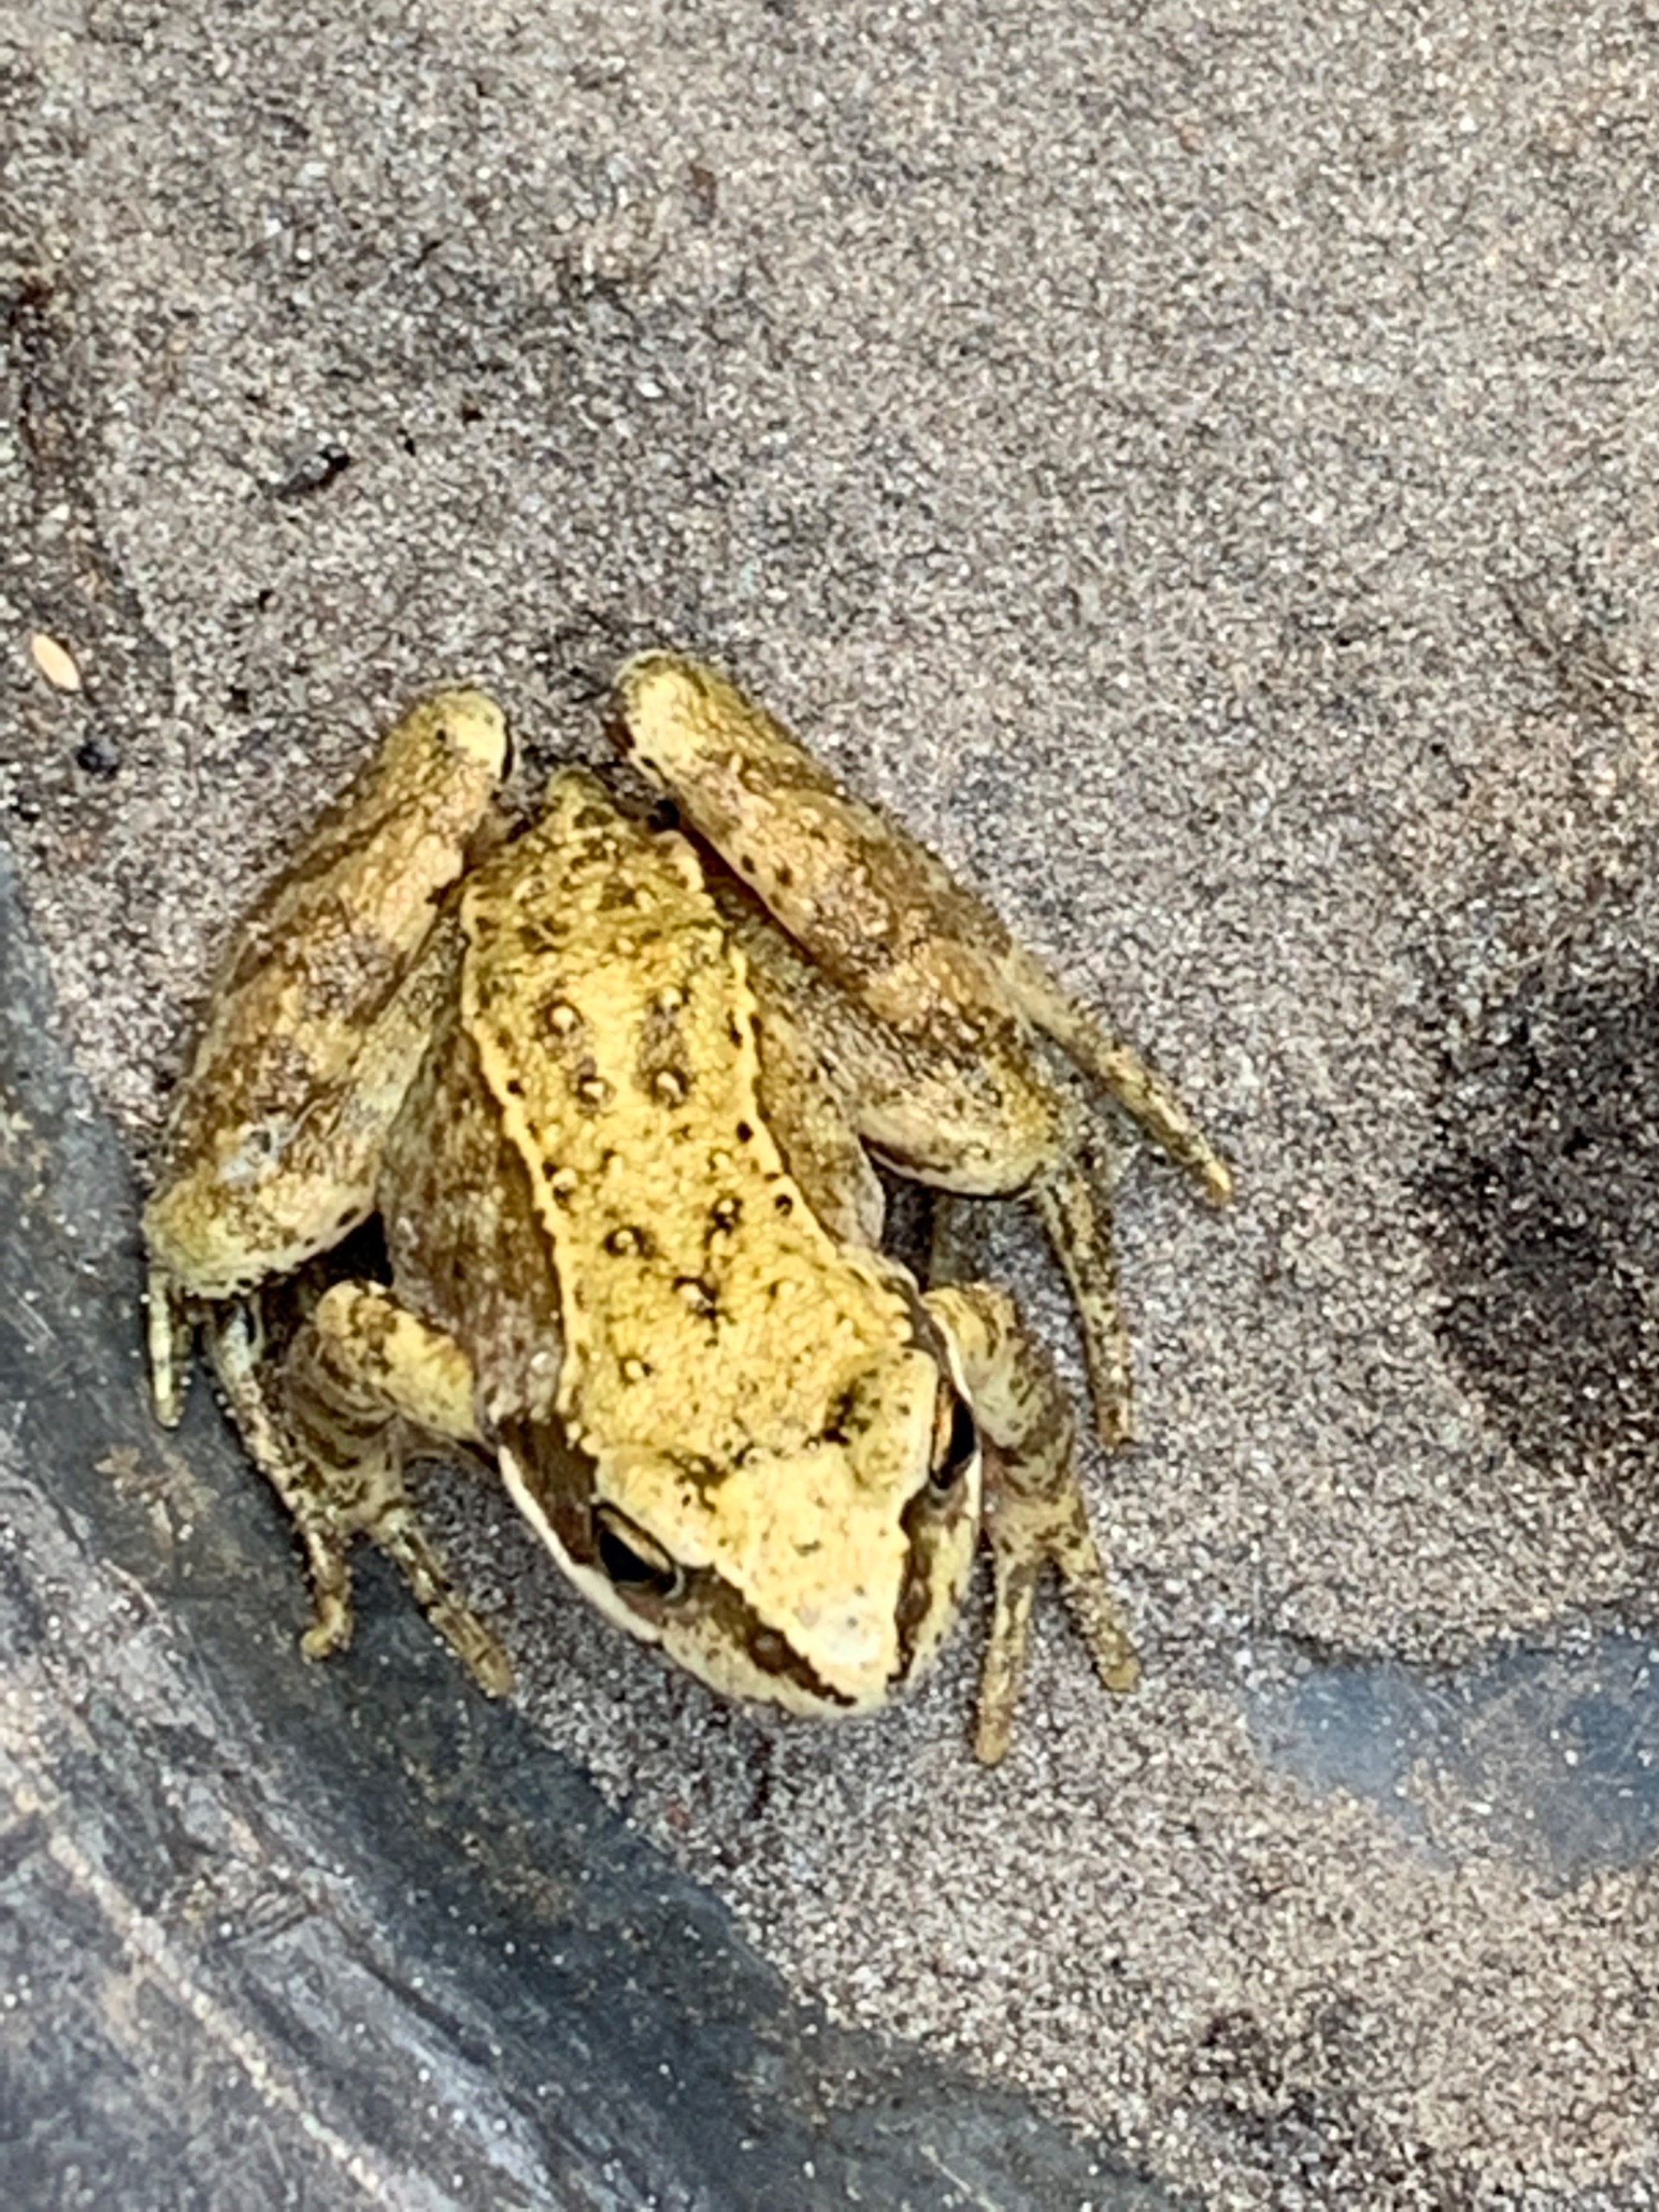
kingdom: Animalia
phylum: Chordata
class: Amphibia
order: Anura
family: Ranidae
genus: Rana
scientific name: Rana temporaria
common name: Butsnudet frø
